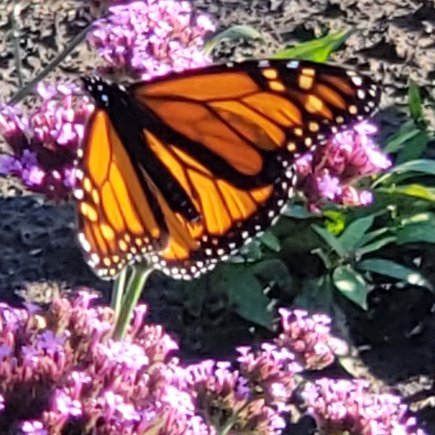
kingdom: Animalia
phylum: Arthropoda
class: Insecta
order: Lepidoptera
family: Nymphalidae
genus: Danaus
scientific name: Danaus plexippus
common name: Monarch
